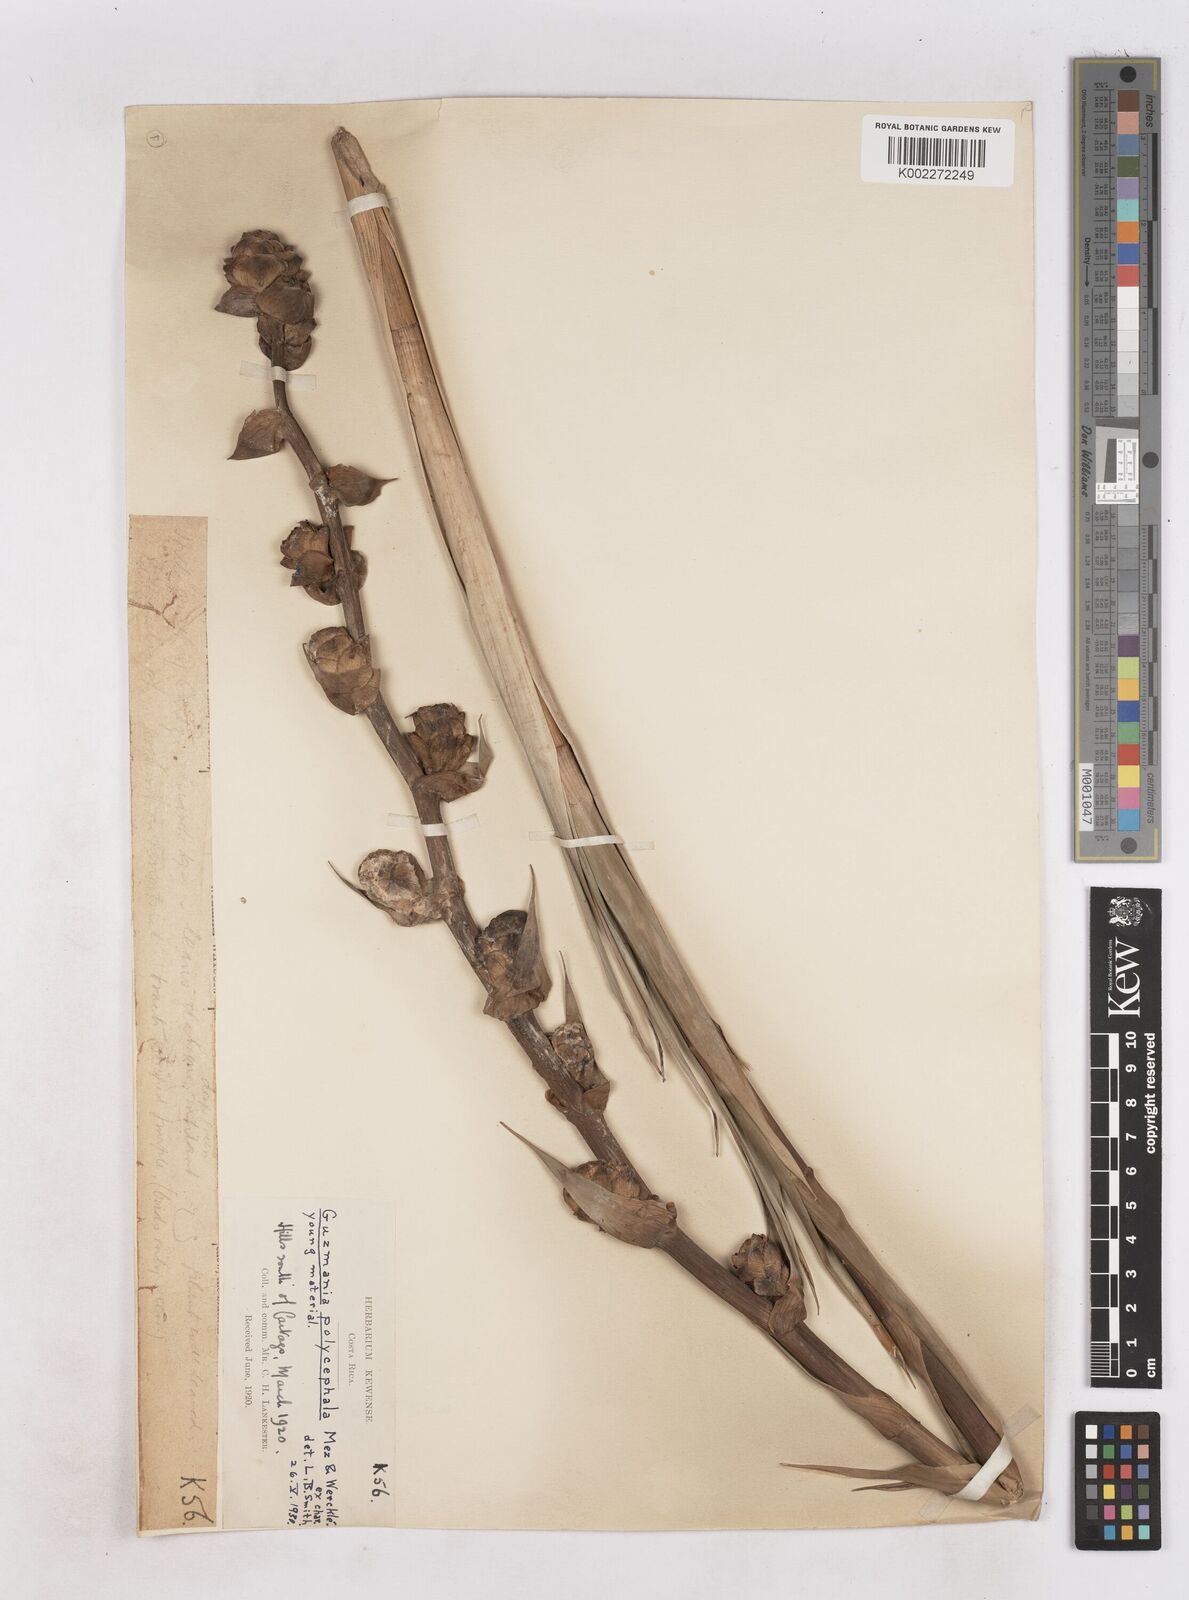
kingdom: Plantae
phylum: Tracheophyta
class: Liliopsida
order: Poales
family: Bromeliaceae
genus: Guzmania
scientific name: Guzmania polycephala
